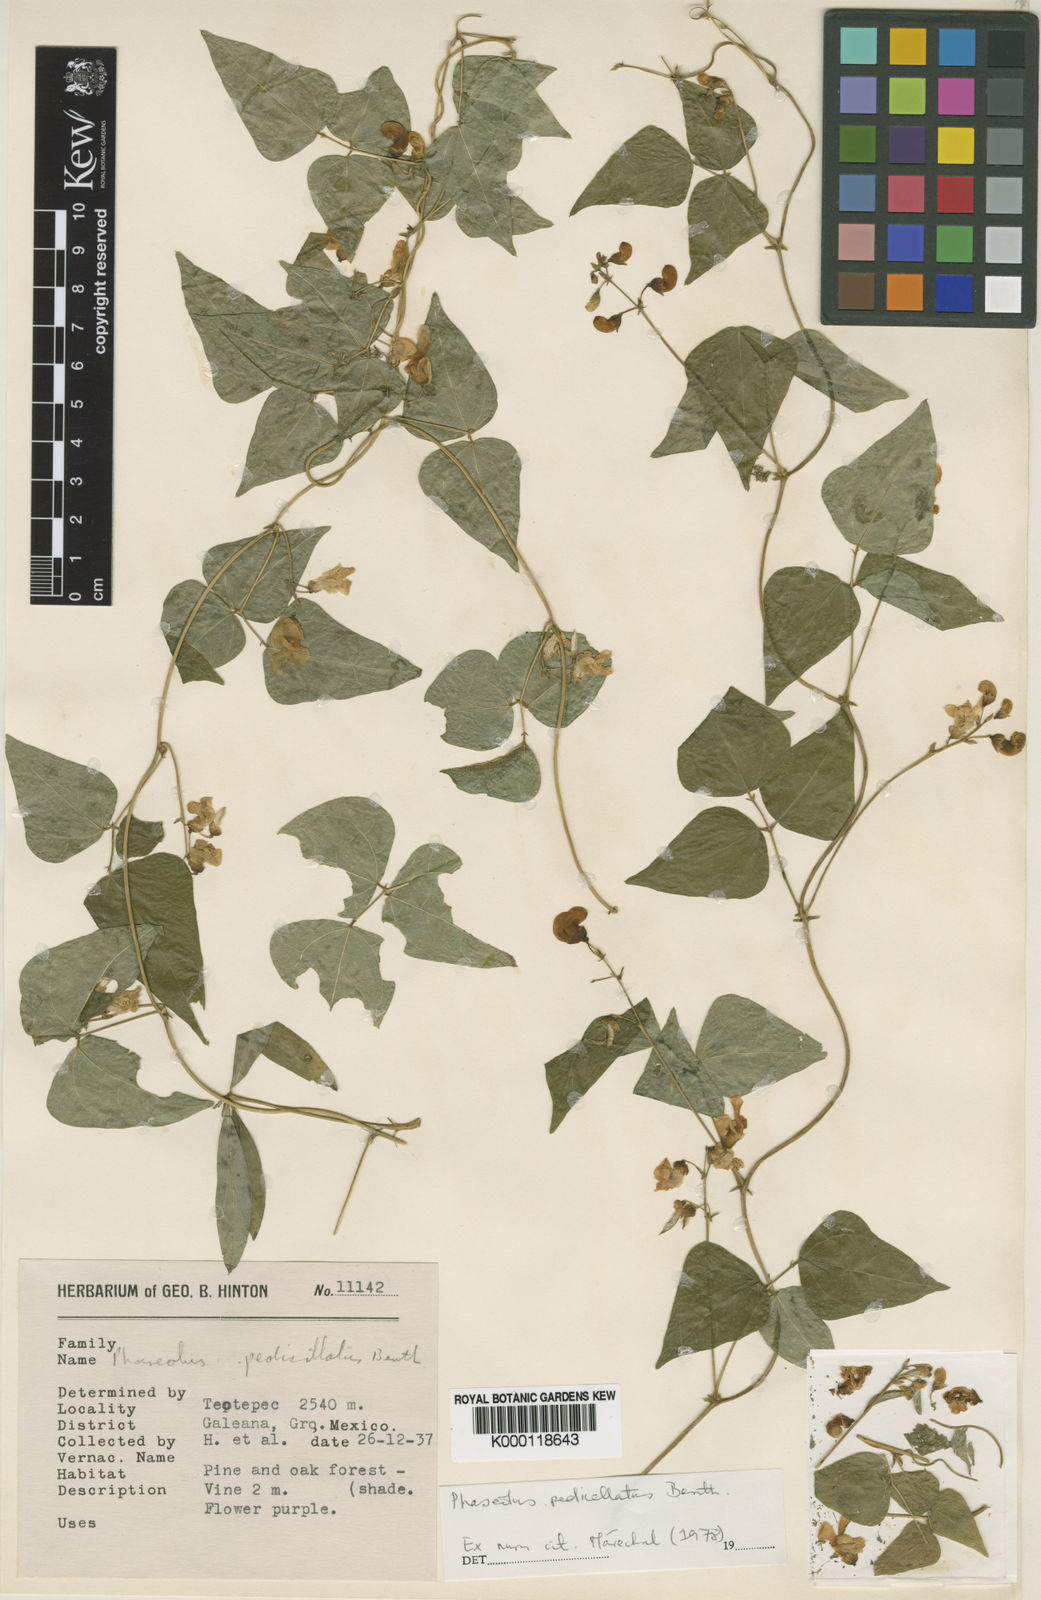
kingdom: Plantae
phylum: Tracheophyta
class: Magnoliopsida
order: Fabales
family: Fabaceae
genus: Phaseolus
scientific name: Phaseolus pedicellatus
